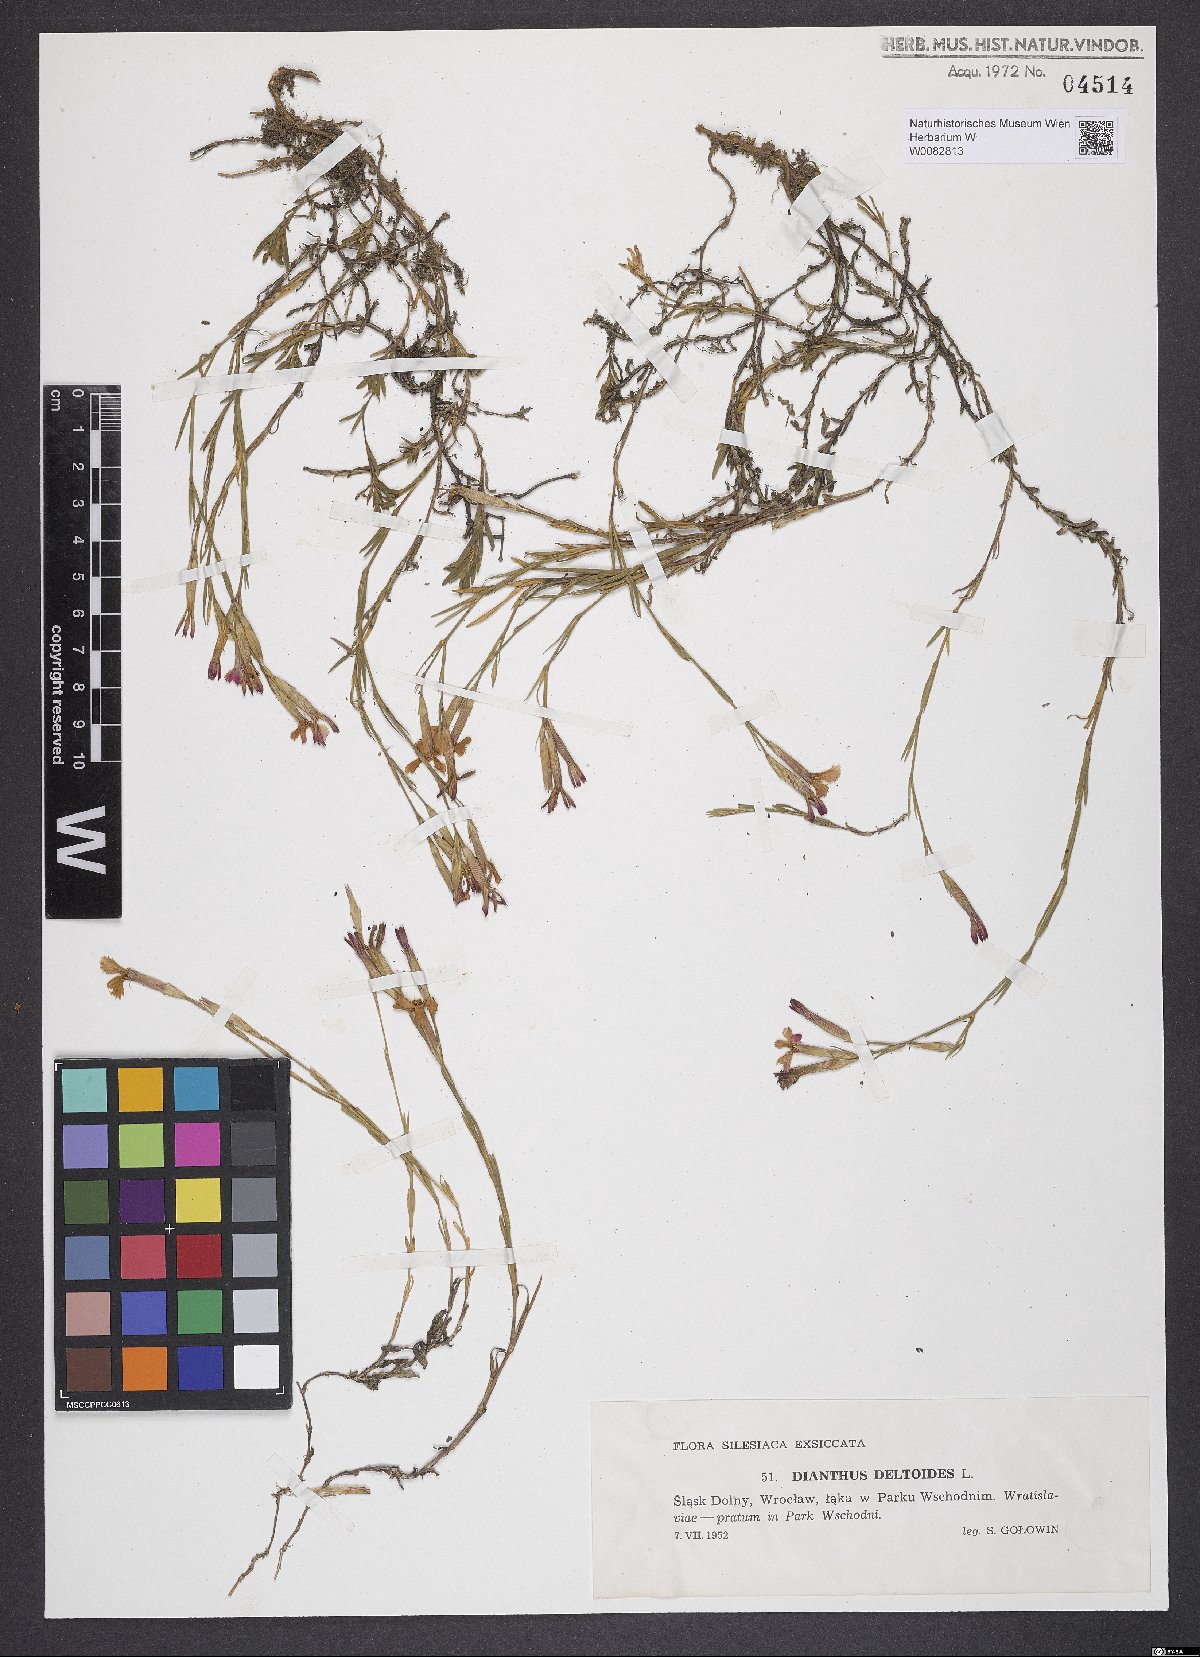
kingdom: Plantae
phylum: Tracheophyta
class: Magnoliopsida
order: Caryophyllales
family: Caryophyllaceae
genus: Dianthus
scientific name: Dianthus deltoides
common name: Maiden pink
